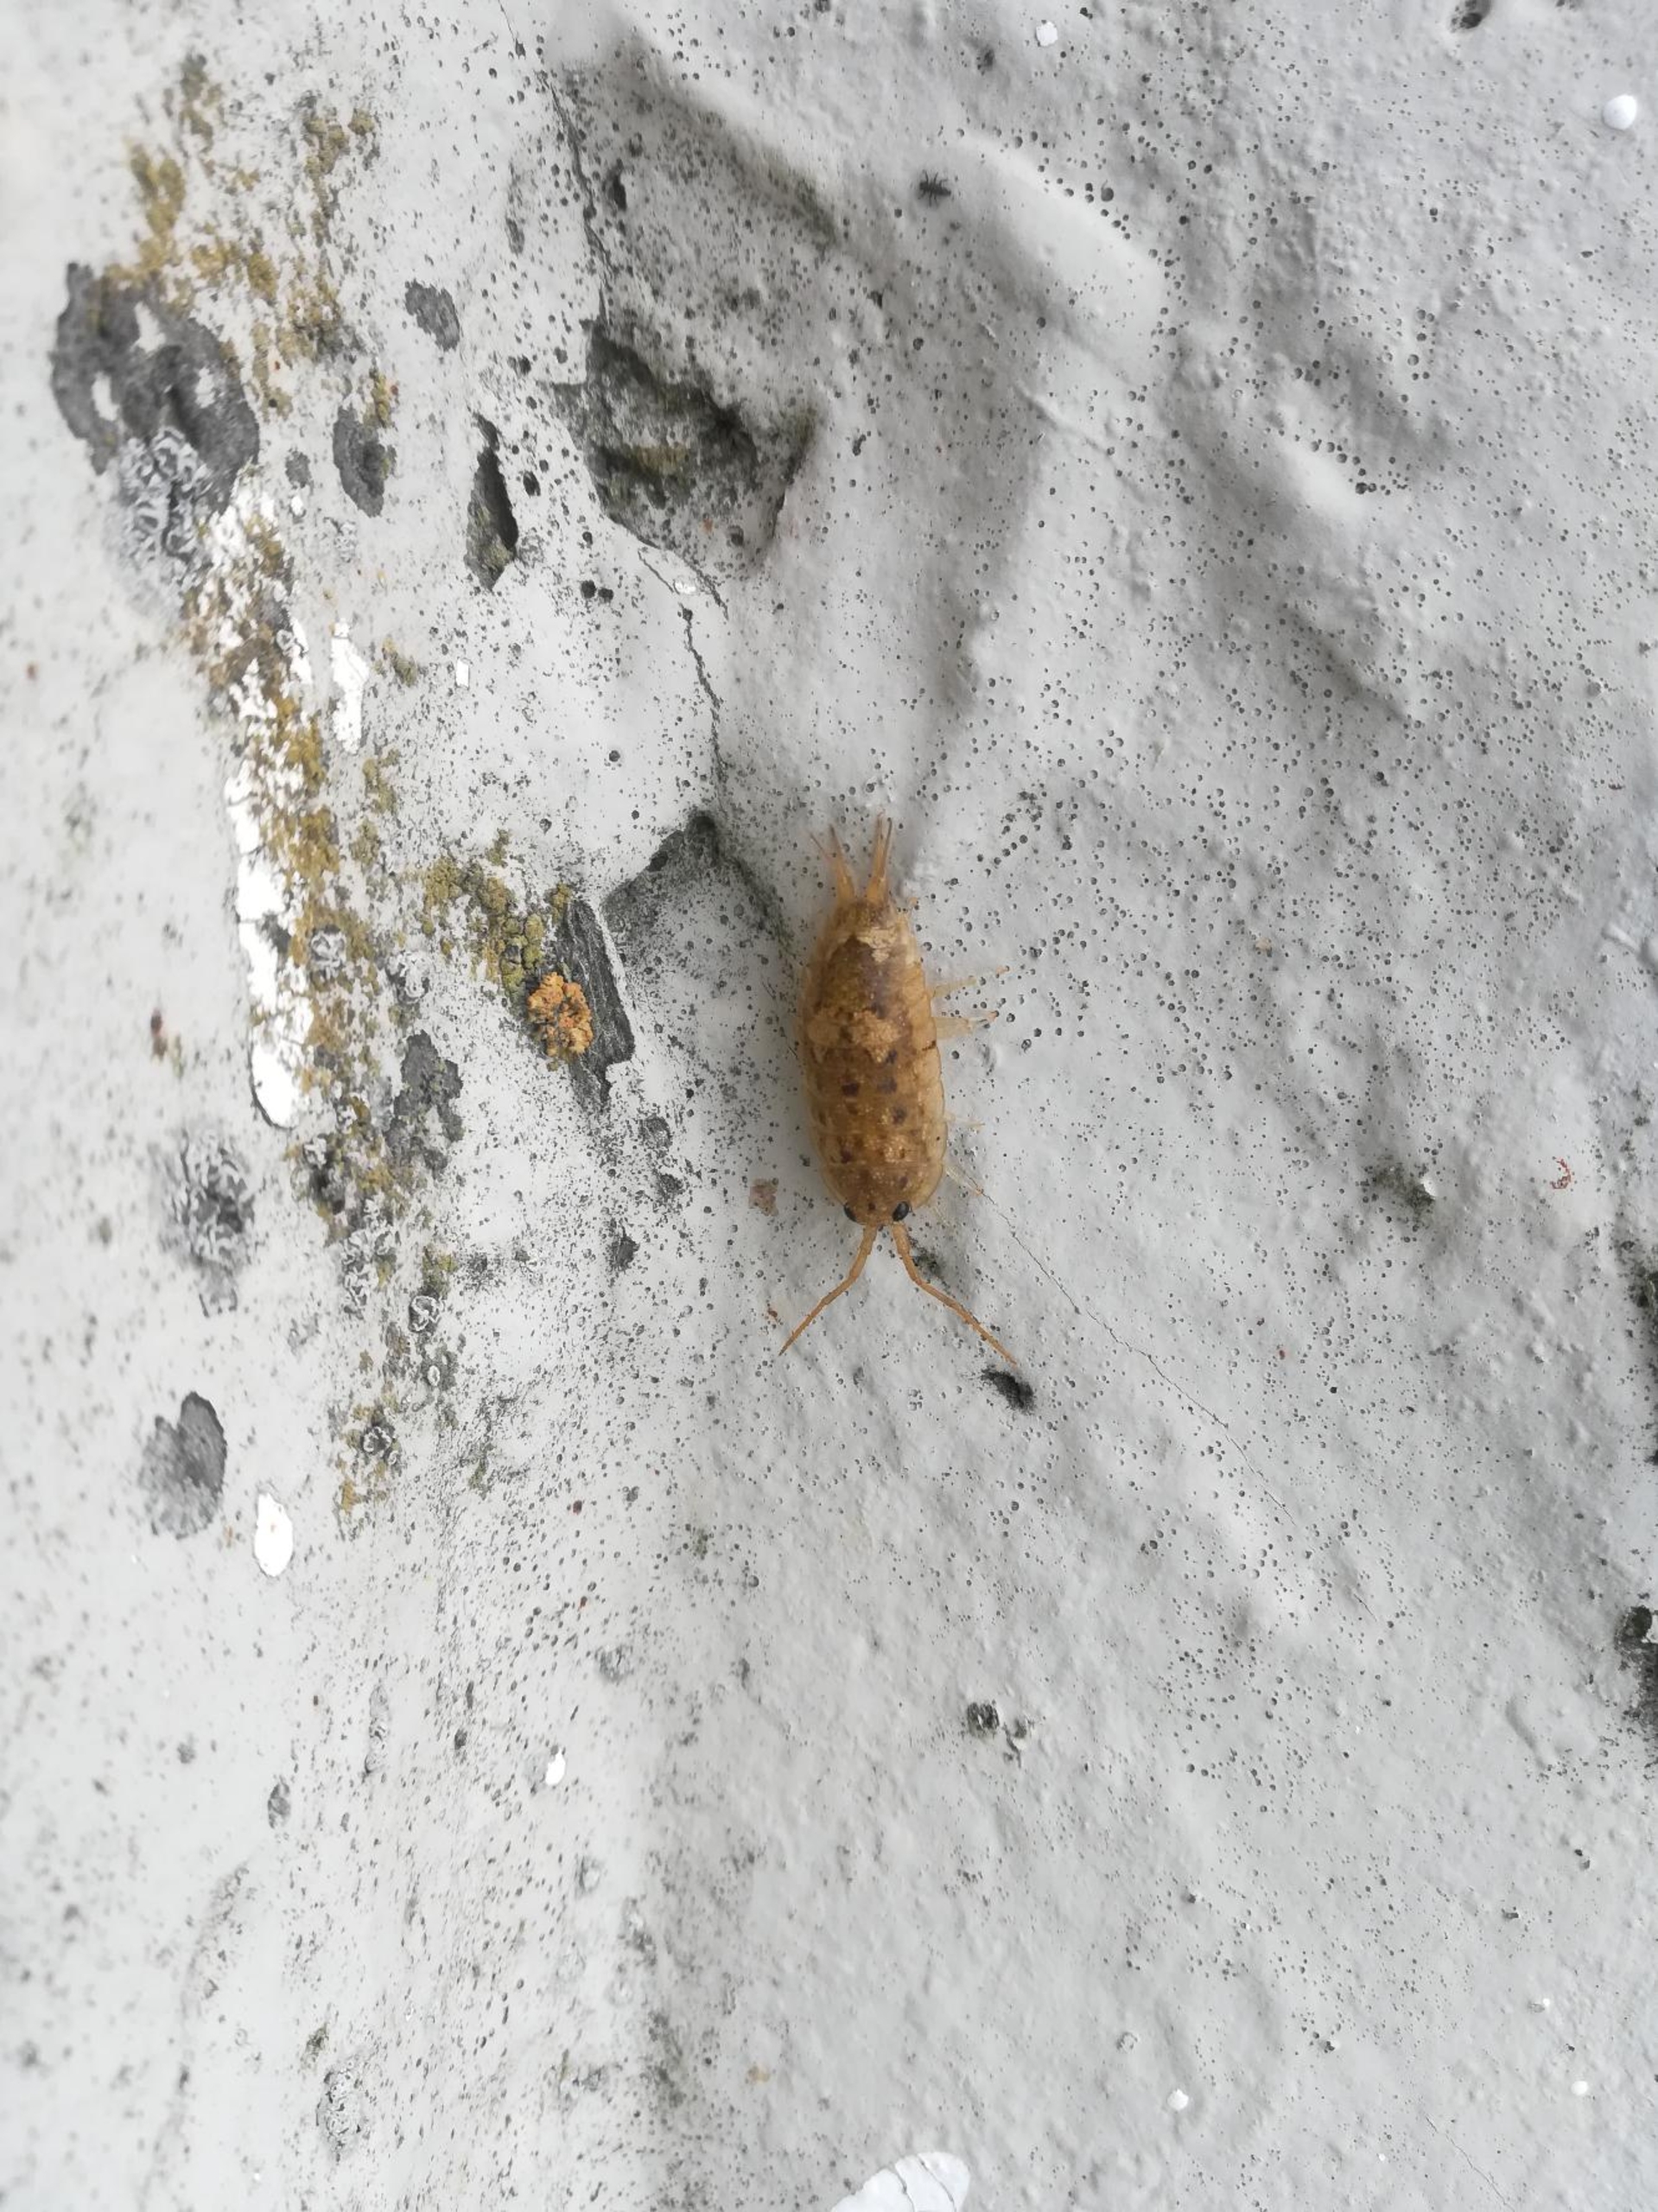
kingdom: Animalia
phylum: Arthropoda
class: Malacostraca
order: Isopoda
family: Ligiidae
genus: Ligia
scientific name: Ligia oceanica
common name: Havbænkebider
